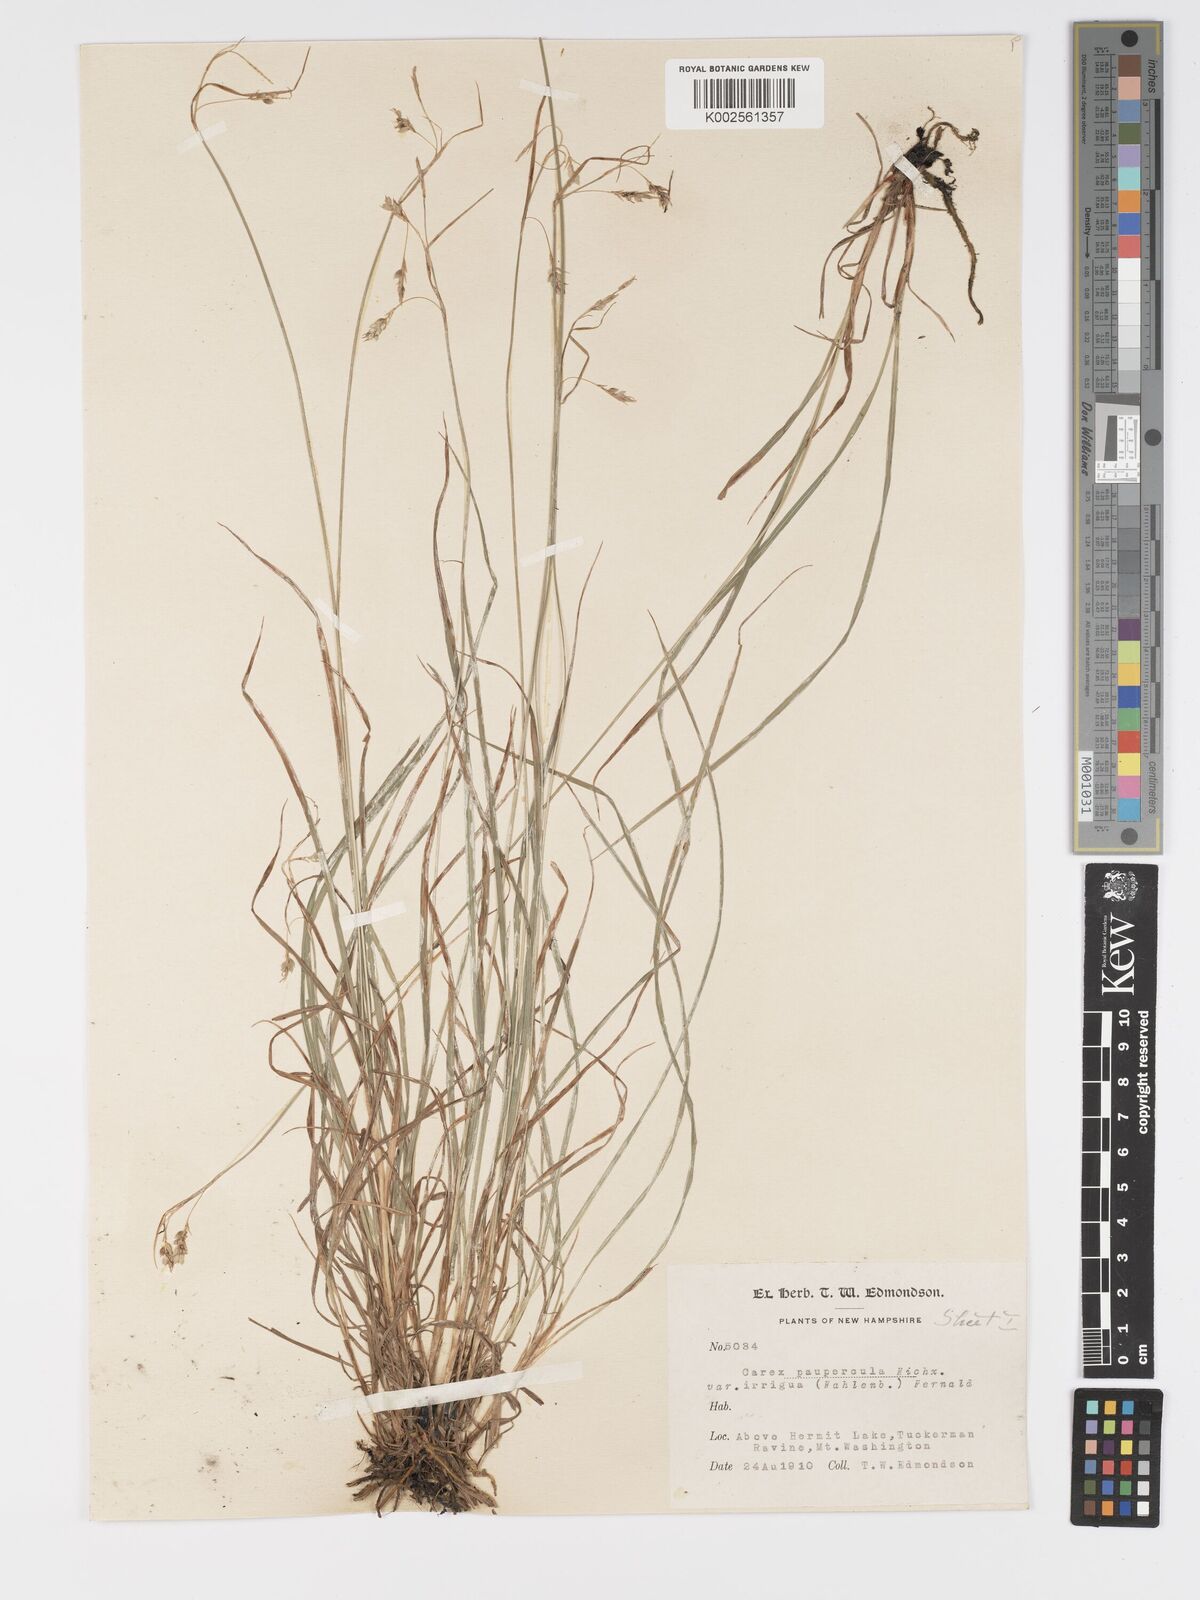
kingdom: Plantae
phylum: Tracheophyta
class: Liliopsida
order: Poales
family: Cyperaceae
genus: Carex
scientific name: Carex magellanica
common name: Bog sedge
